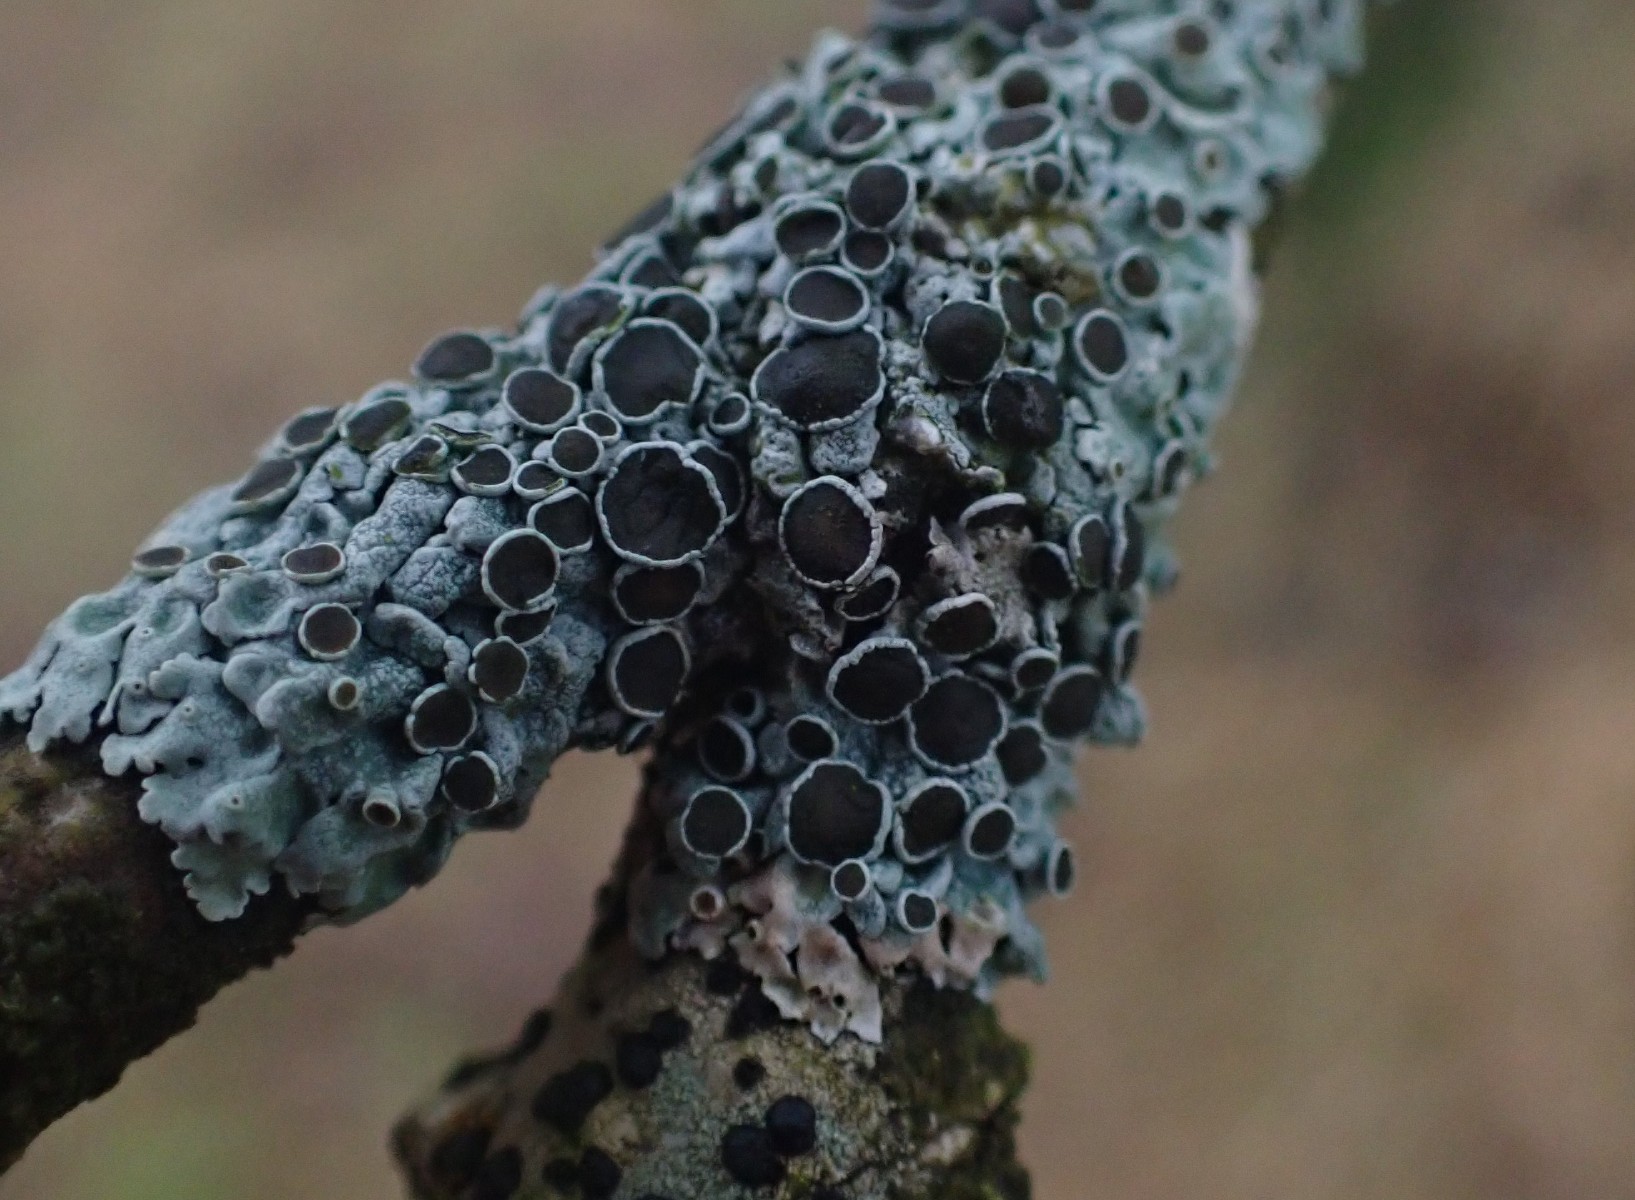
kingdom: Fungi
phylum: Ascomycota
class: Lecanoromycetes
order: Caliciales
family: Physciaceae
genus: Physcia
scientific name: Physcia aipolia
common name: hvidprikket rosetlav
